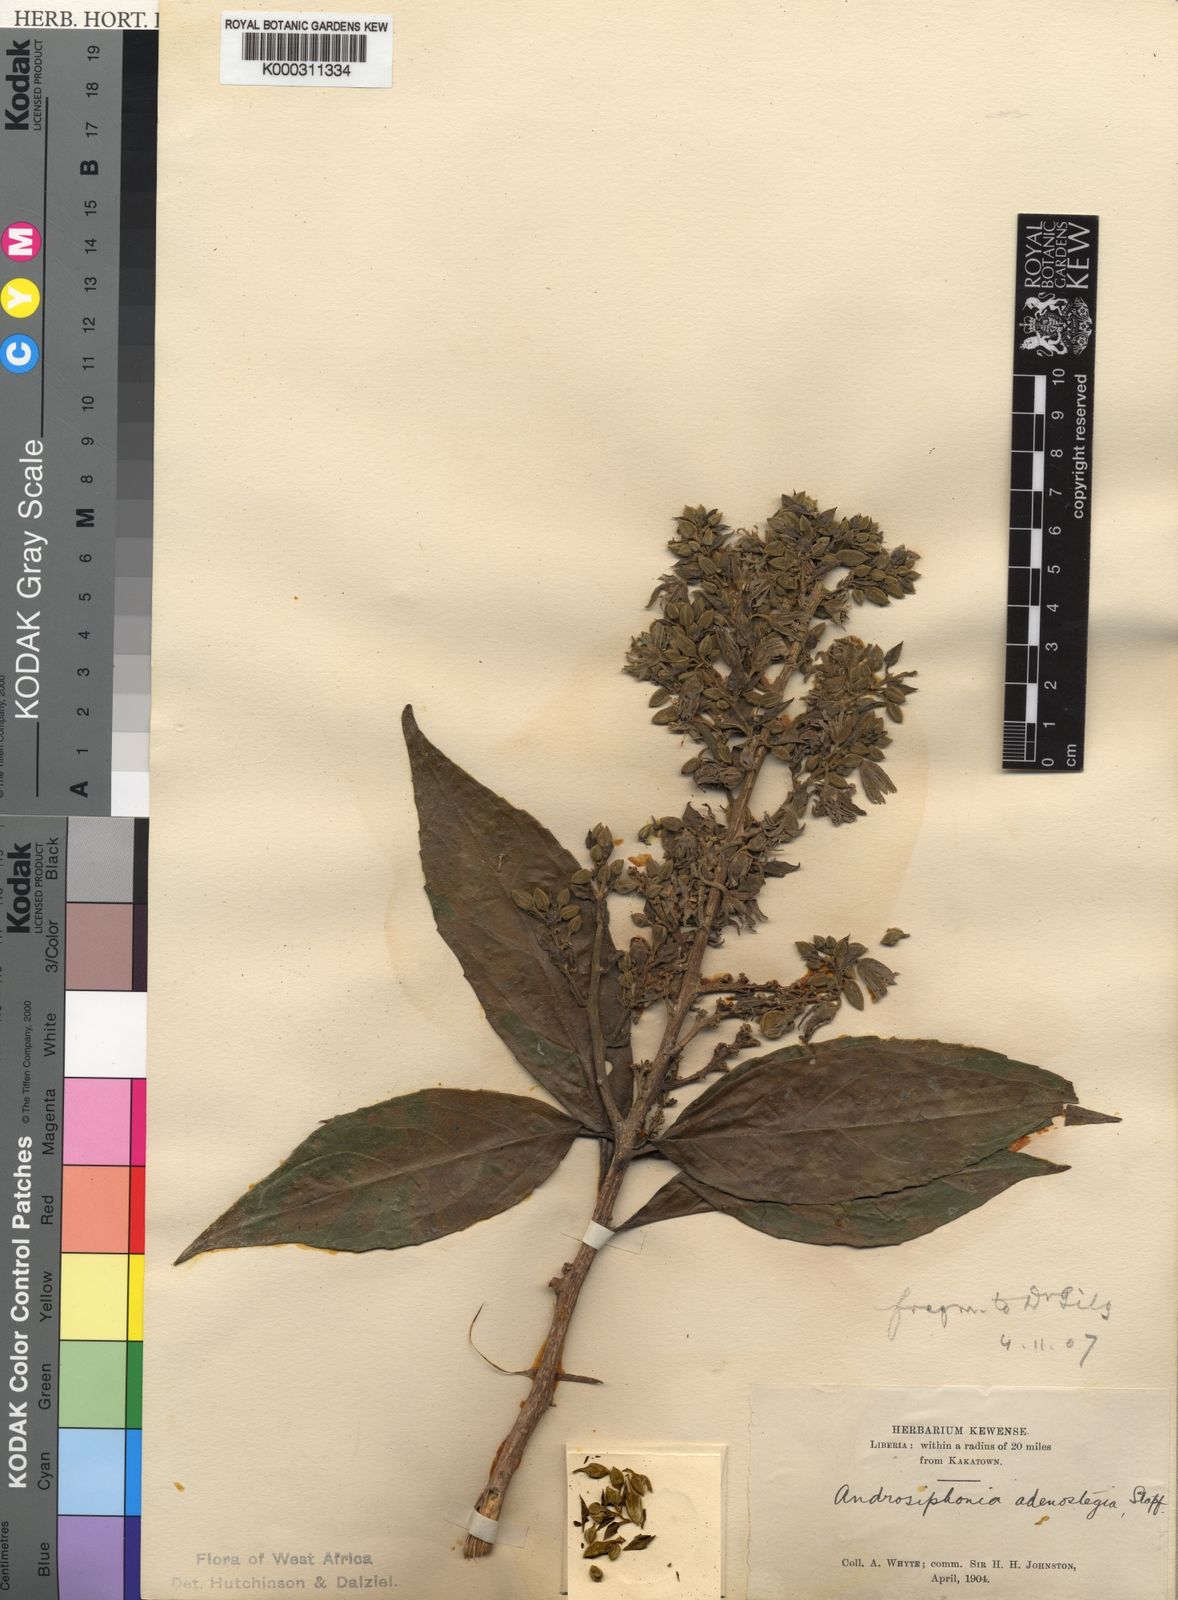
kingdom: Plantae
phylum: Tracheophyta
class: Magnoliopsida
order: Malpighiales
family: Passifloraceae
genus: Androsiphonia
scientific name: Androsiphonia adenostegia
